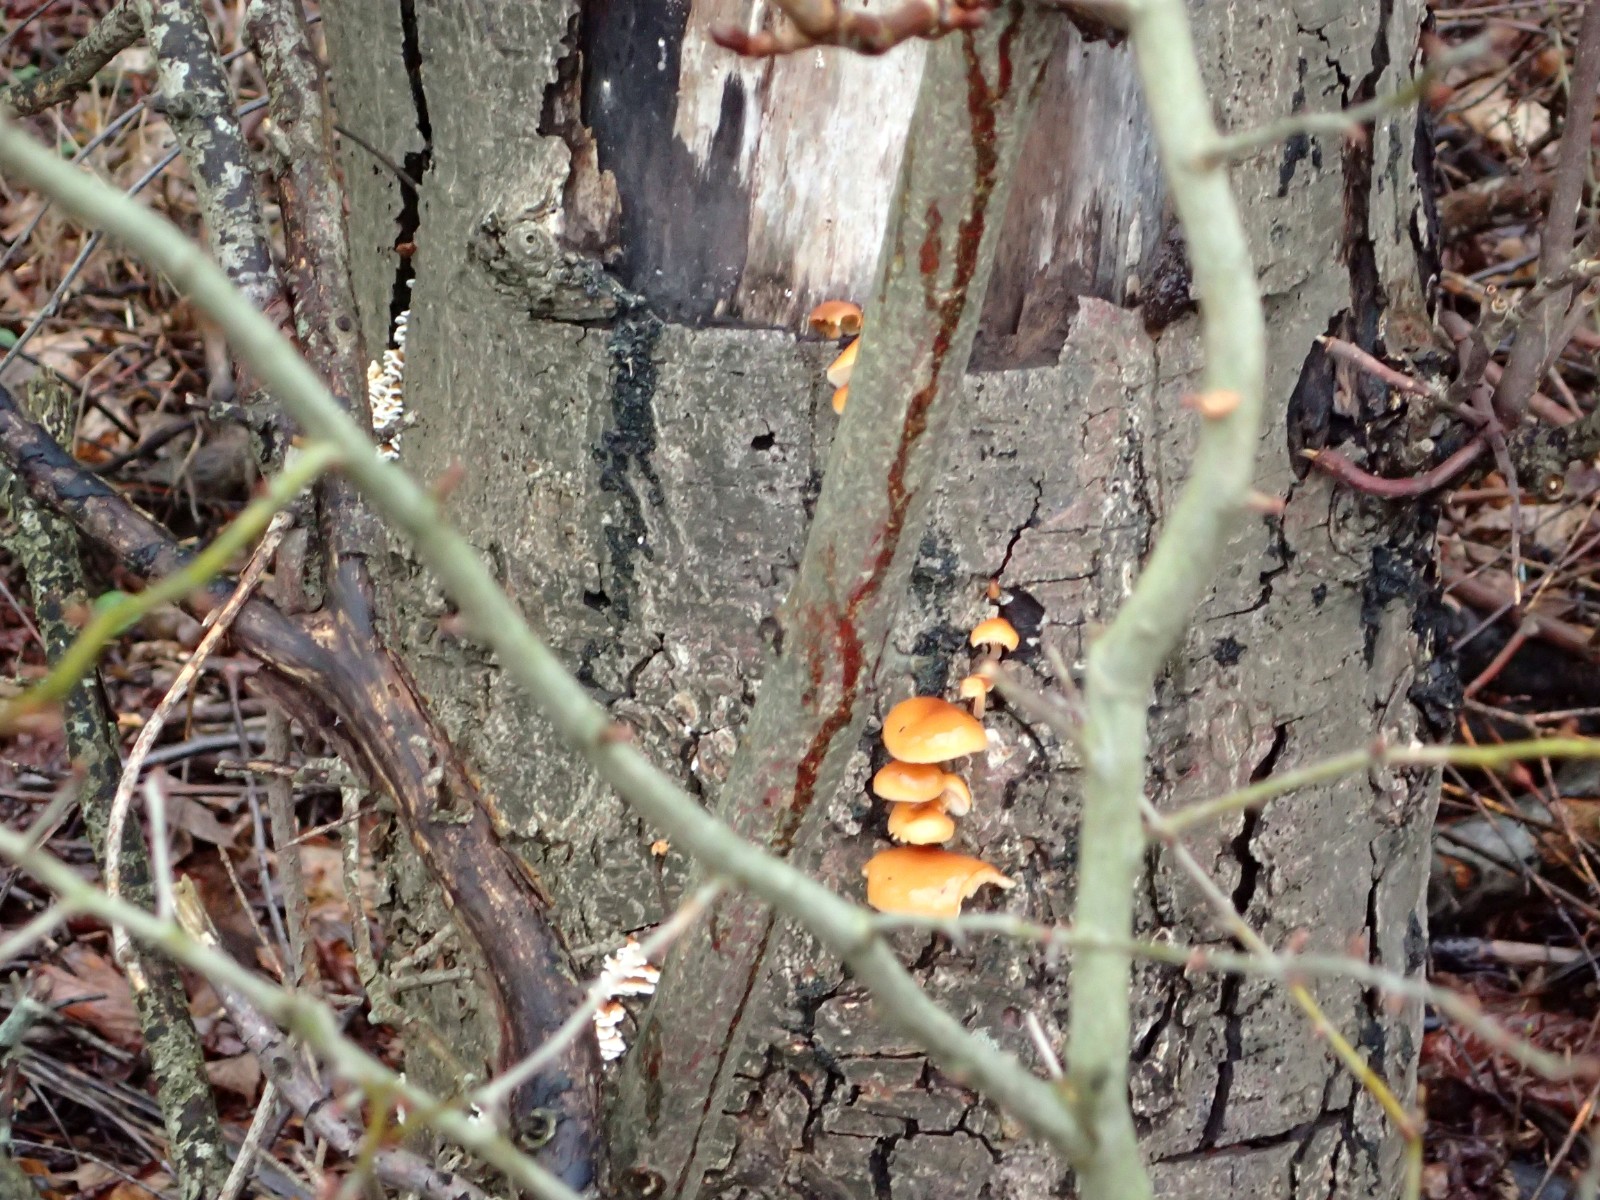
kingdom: Fungi
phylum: Basidiomycota
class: Agaricomycetes
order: Agaricales
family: Physalacriaceae
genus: Flammulina
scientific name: Flammulina velutipes
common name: gul fløjlsfod
